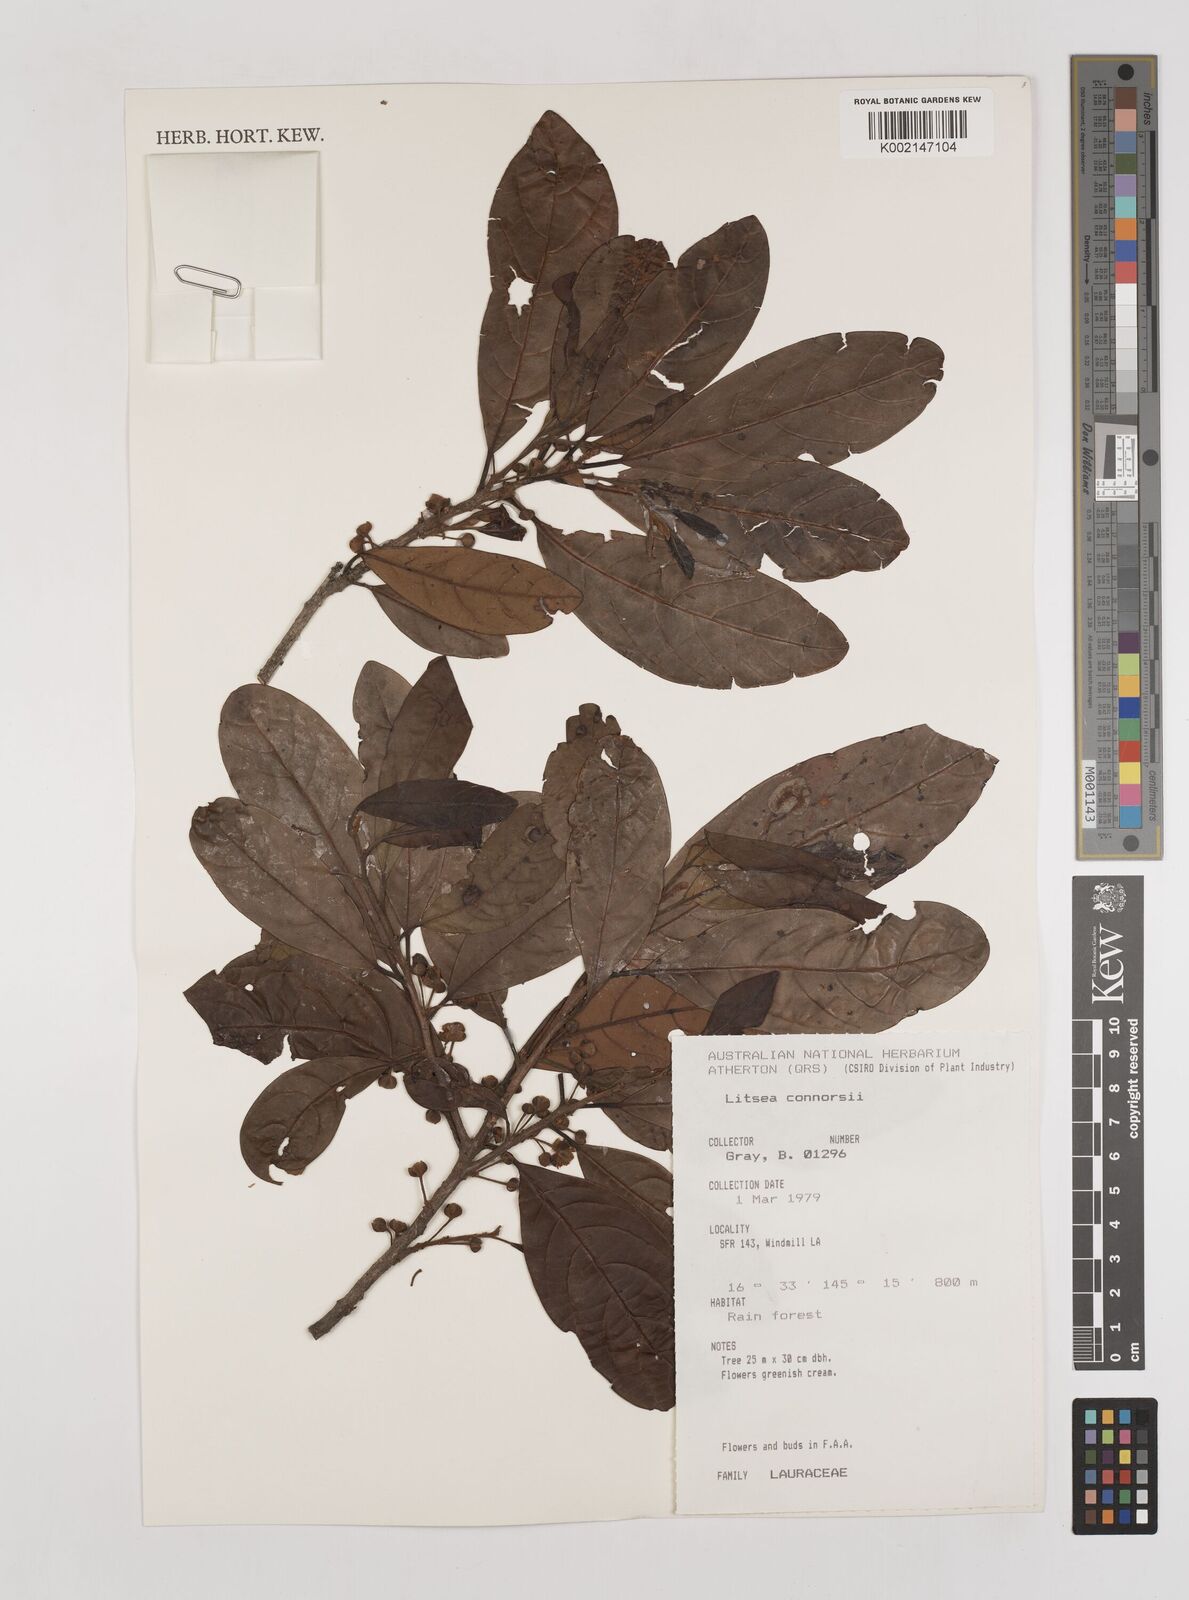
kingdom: Plantae
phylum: Tracheophyta
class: Magnoliopsida
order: Laurales
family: Lauraceae
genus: Litsea
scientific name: Litsea connorsii
